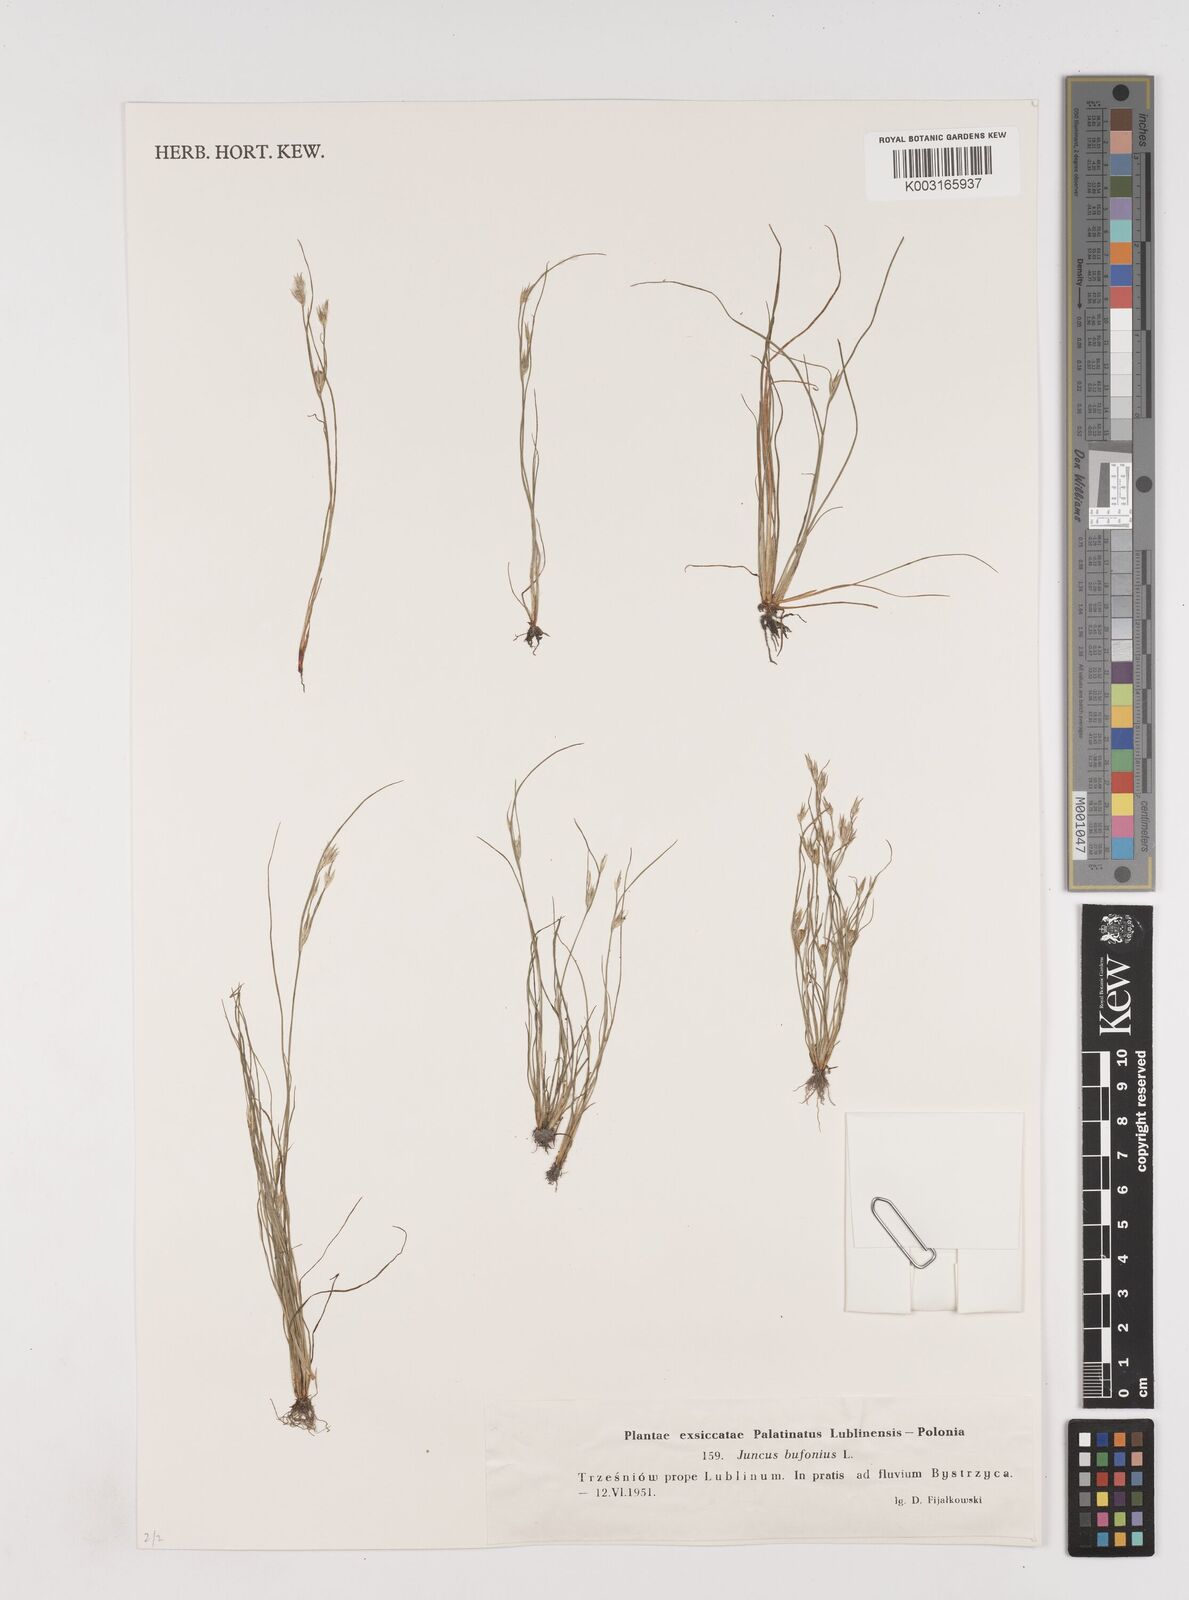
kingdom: Plantae
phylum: Tracheophyta
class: Liliopsida
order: Poales
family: Juncaceae
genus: Juncus
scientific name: Juncus bufonius
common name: Toad rush
